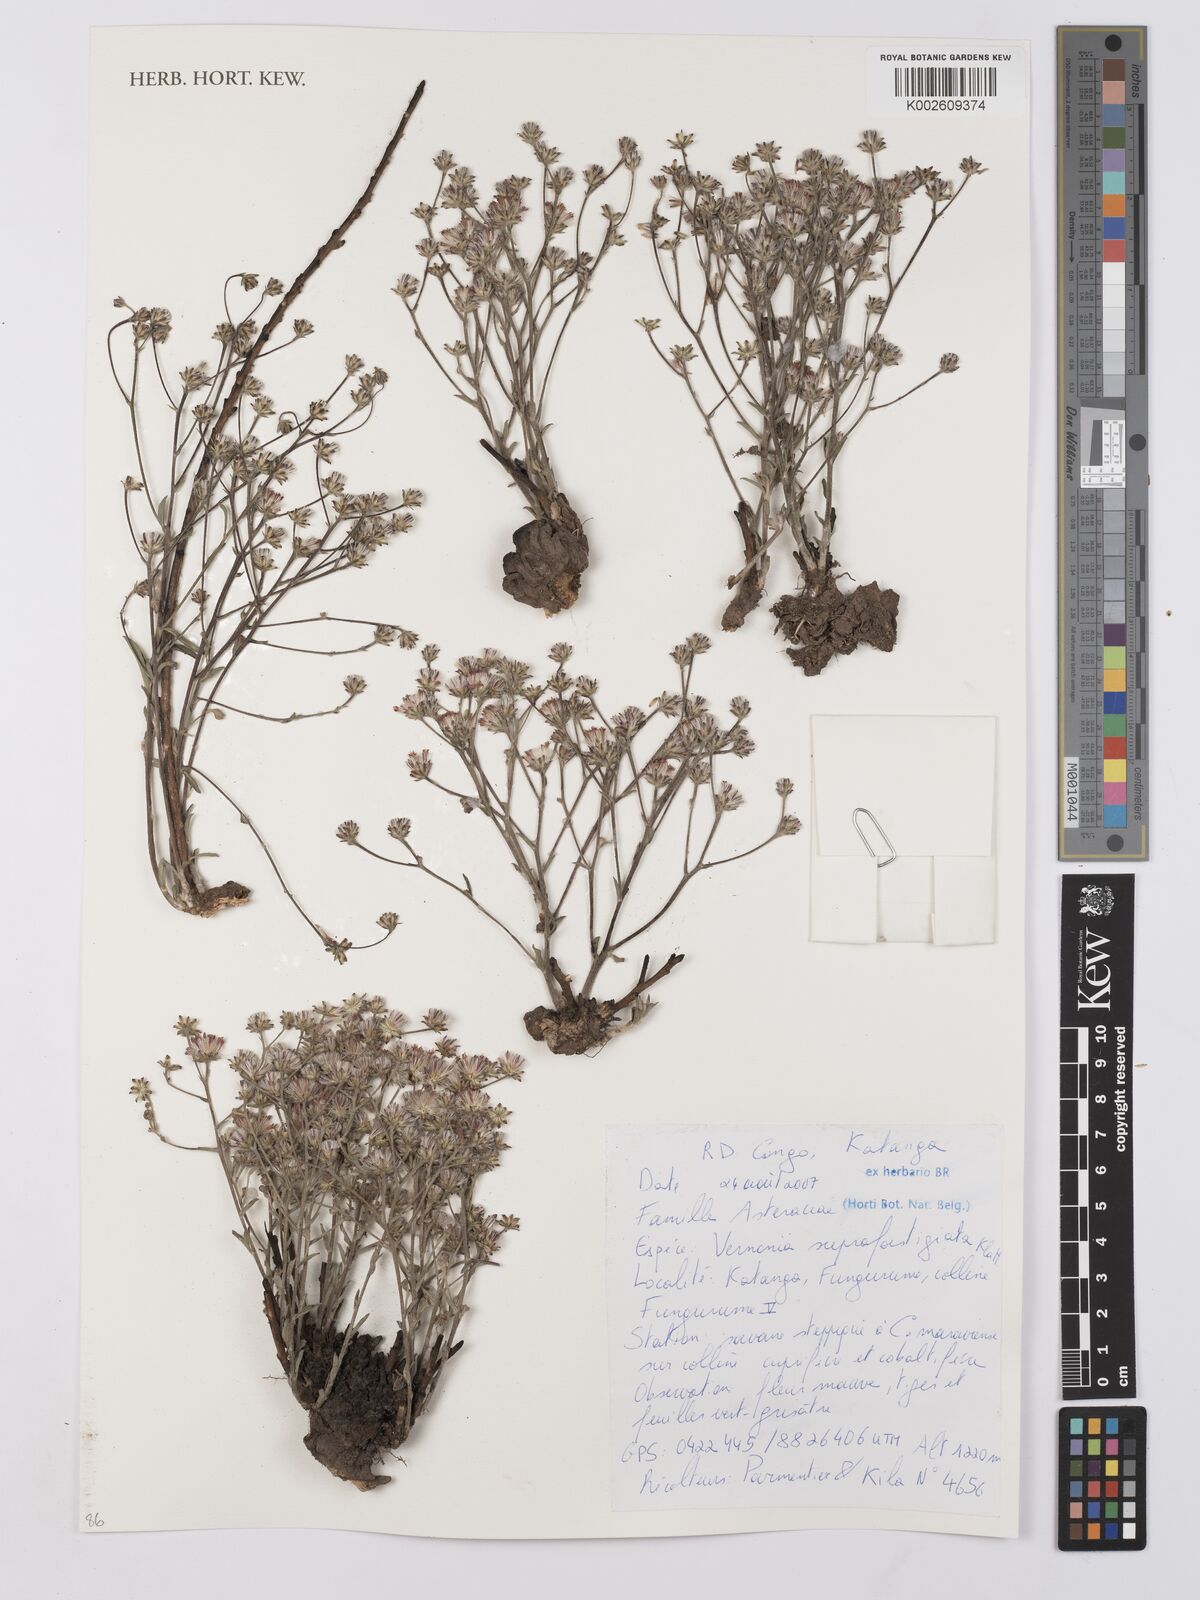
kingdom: Plantae
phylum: Tracheophyta
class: Magnoliopsida
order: Asterales
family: Asteraceae
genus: Vernonia
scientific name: Vernonia suprafastigiata
